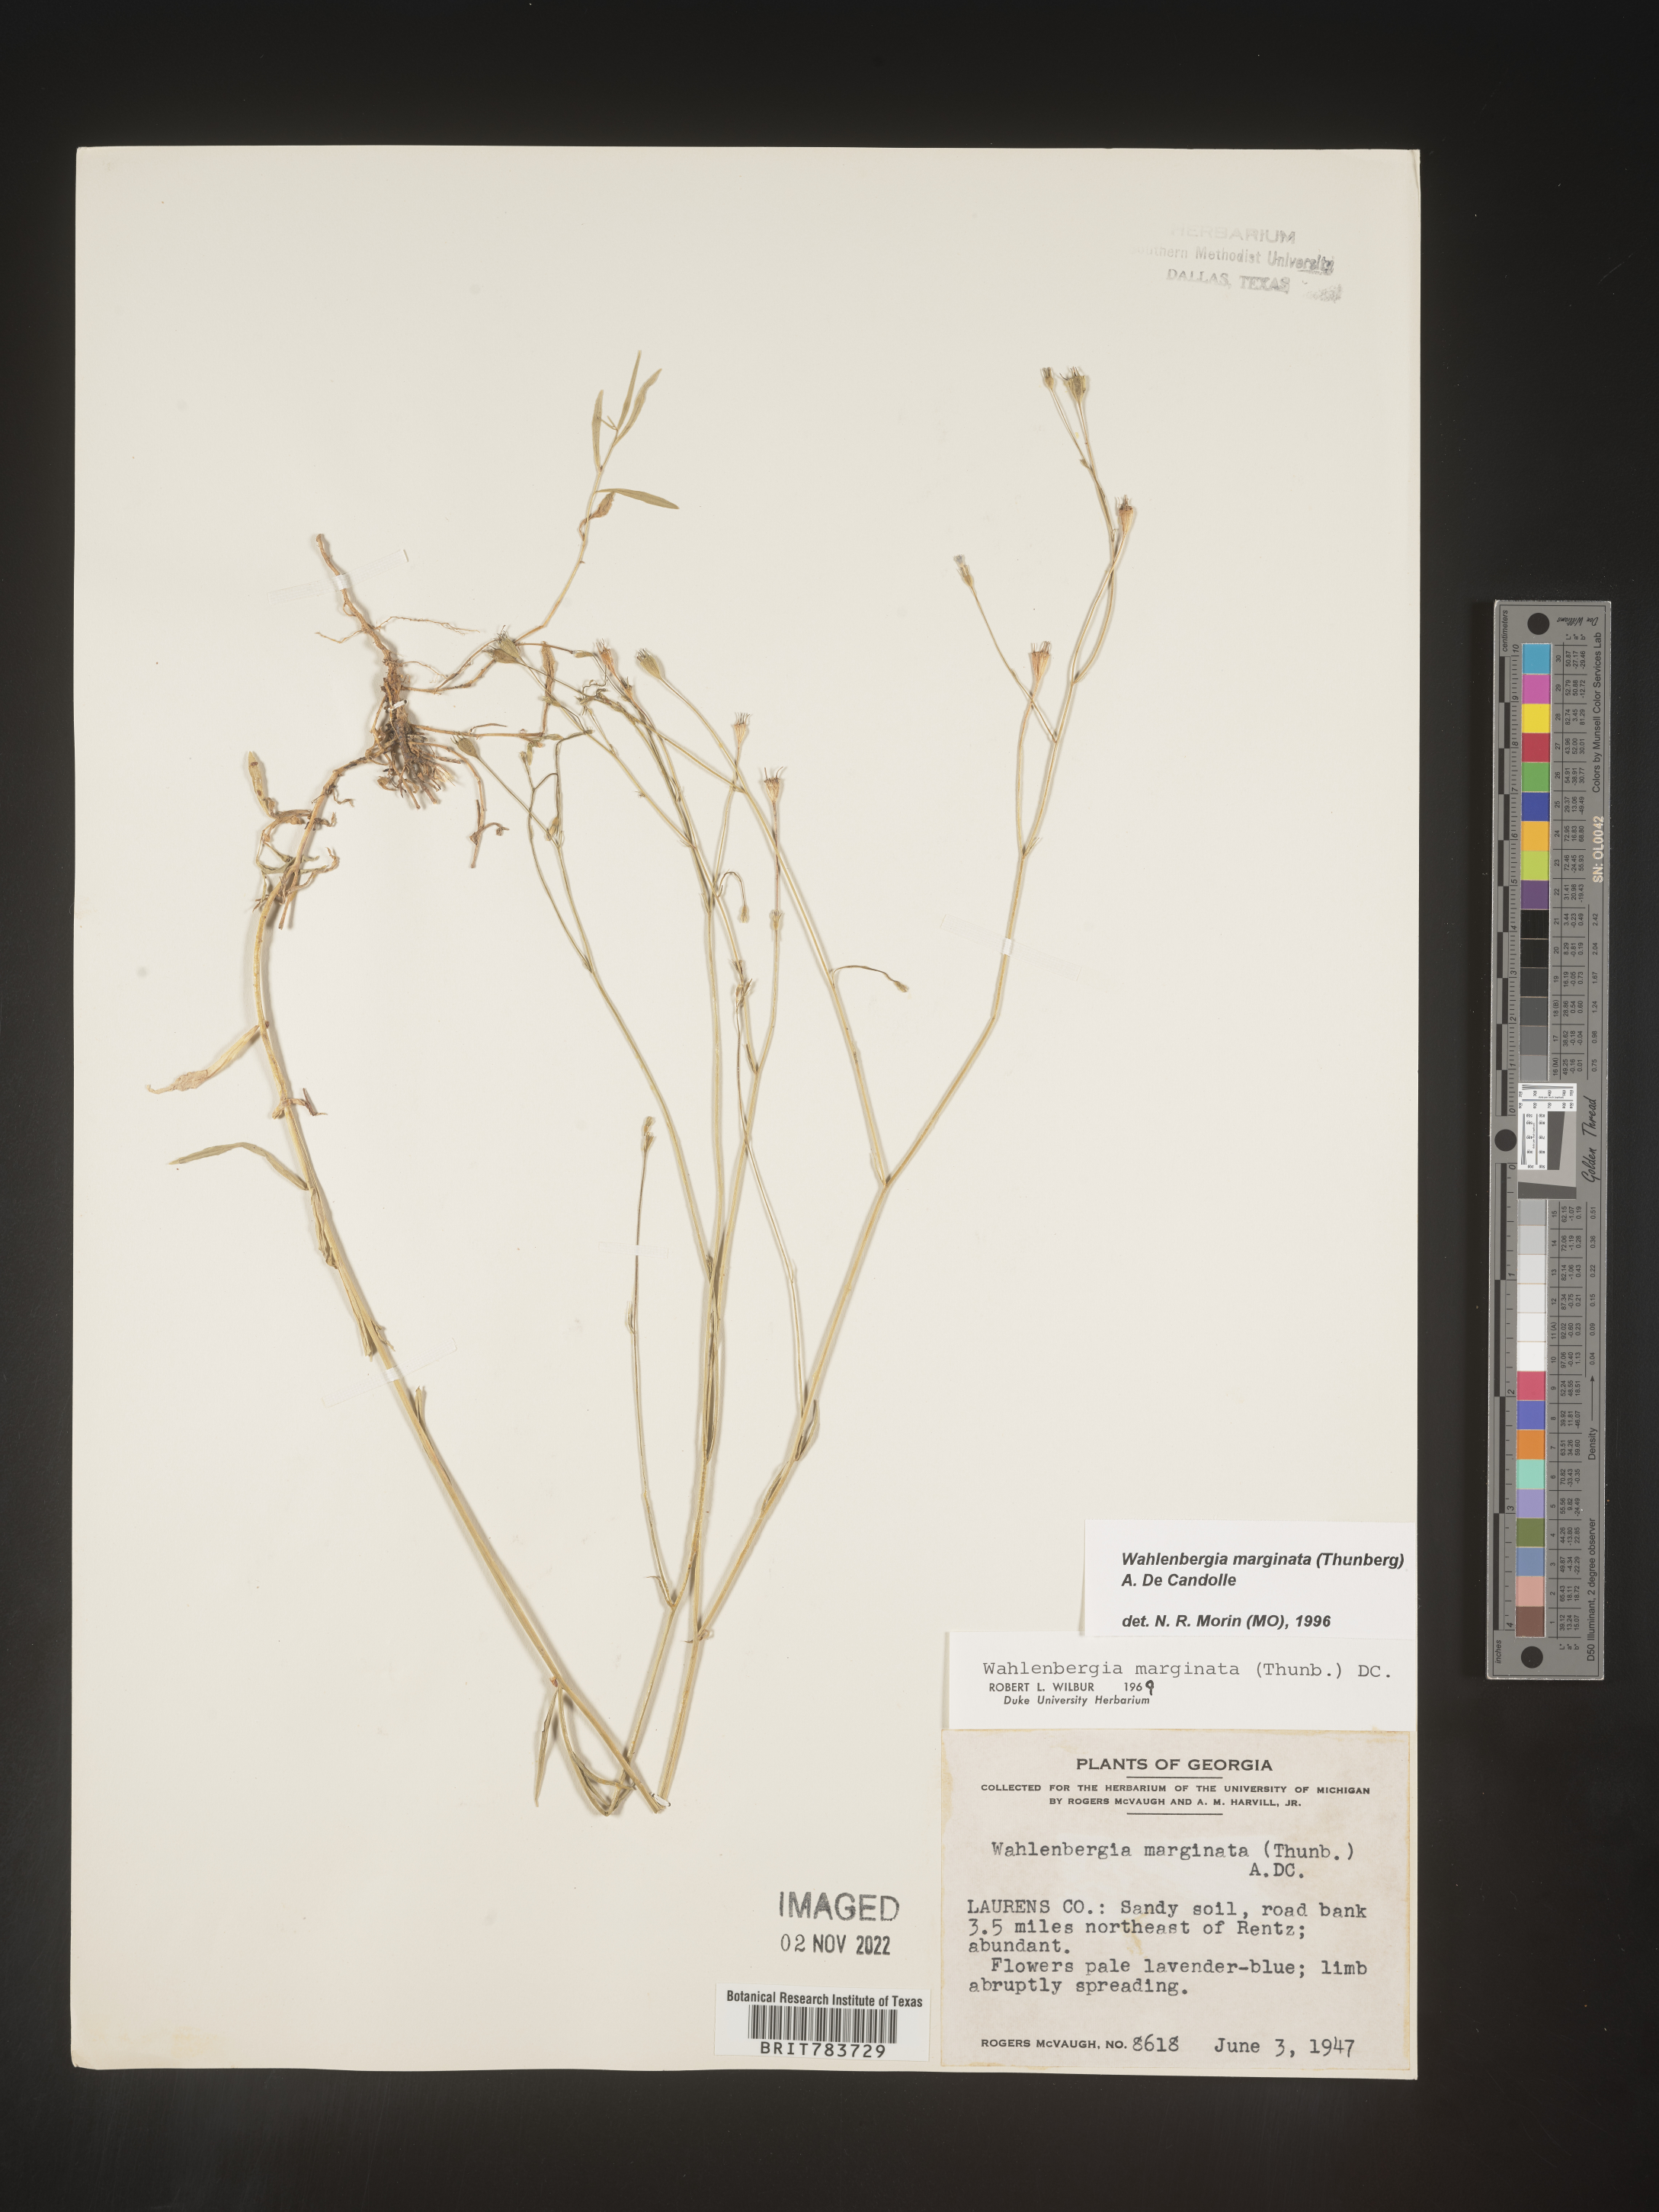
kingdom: Plantae
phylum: Tracheophyta
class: Magnoliopsida
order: Asterales
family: Campanulaceae
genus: Wahlenbergia
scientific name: Wahlenbergia marginata
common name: Southern rockbell
